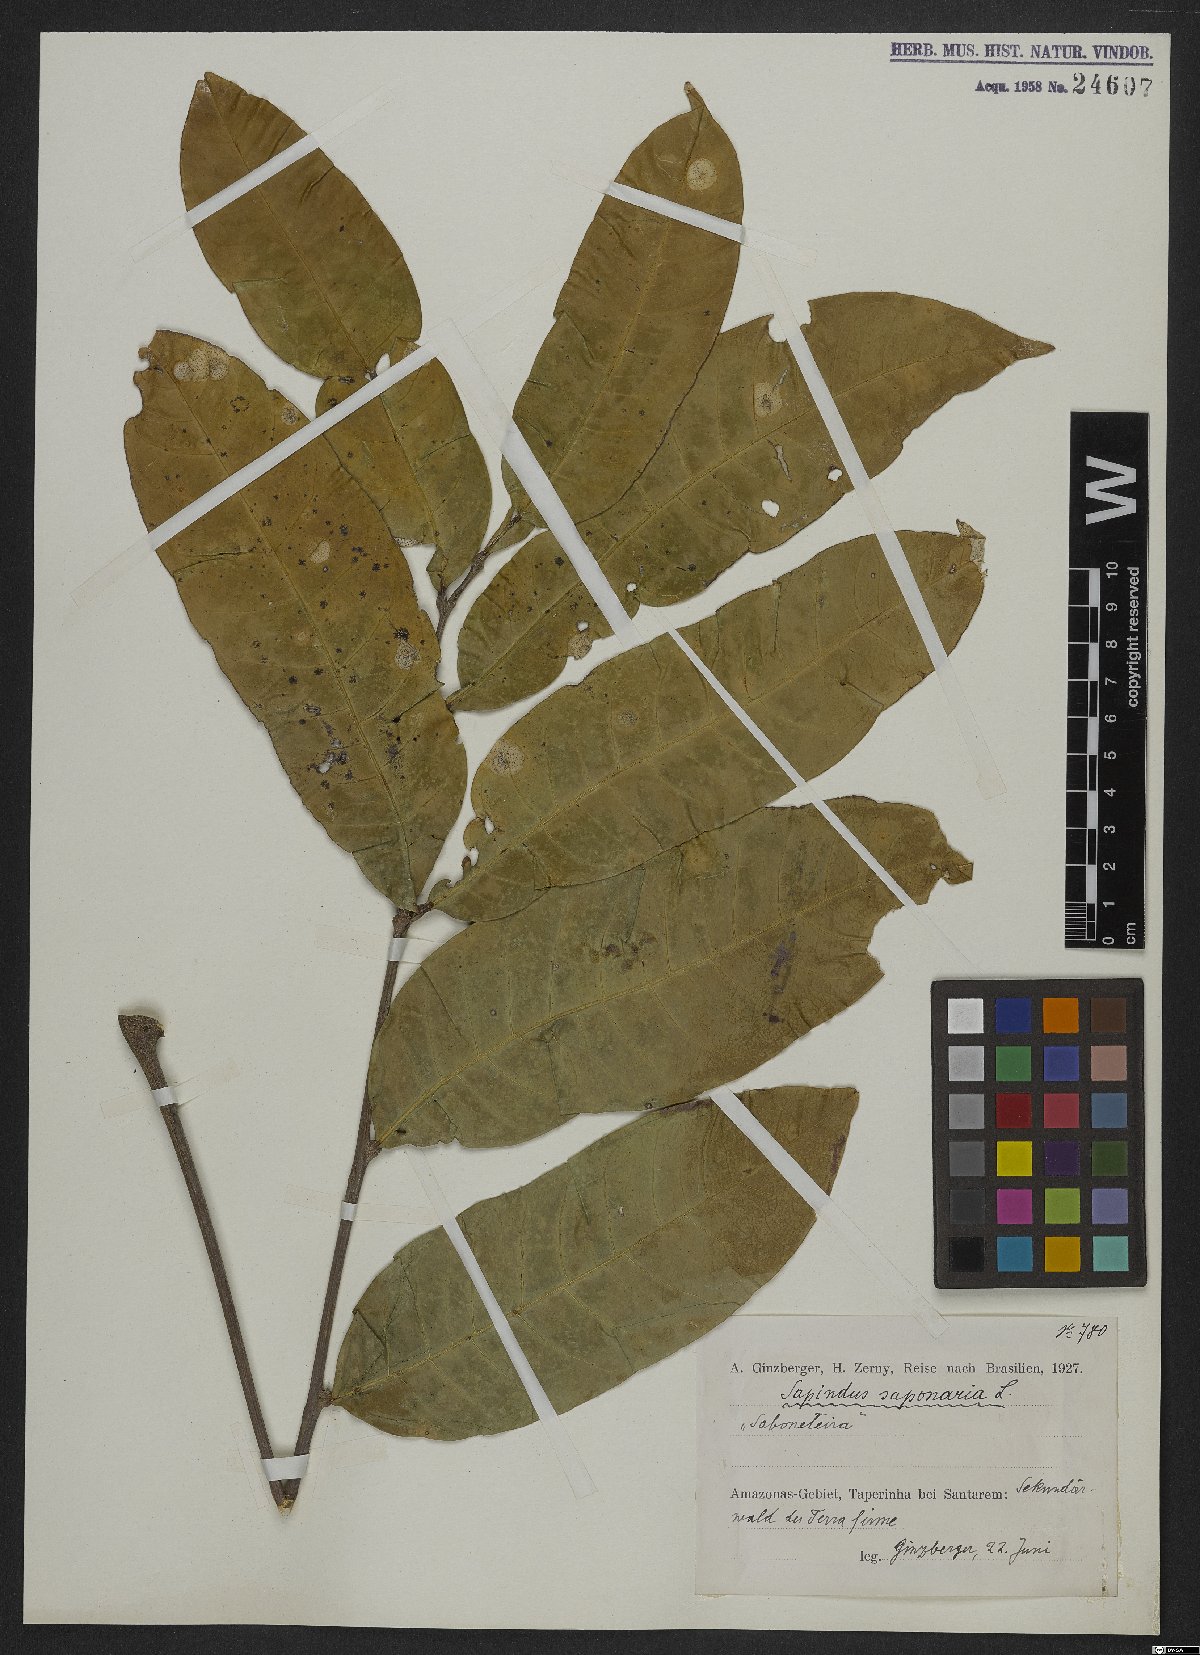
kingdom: Plantae
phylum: Tracheophyta
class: Magnoliopsida
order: Sapindales
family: Sapindaceae
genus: Sapindus
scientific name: Sapindus saponaria
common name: Wingleaf soapberry
